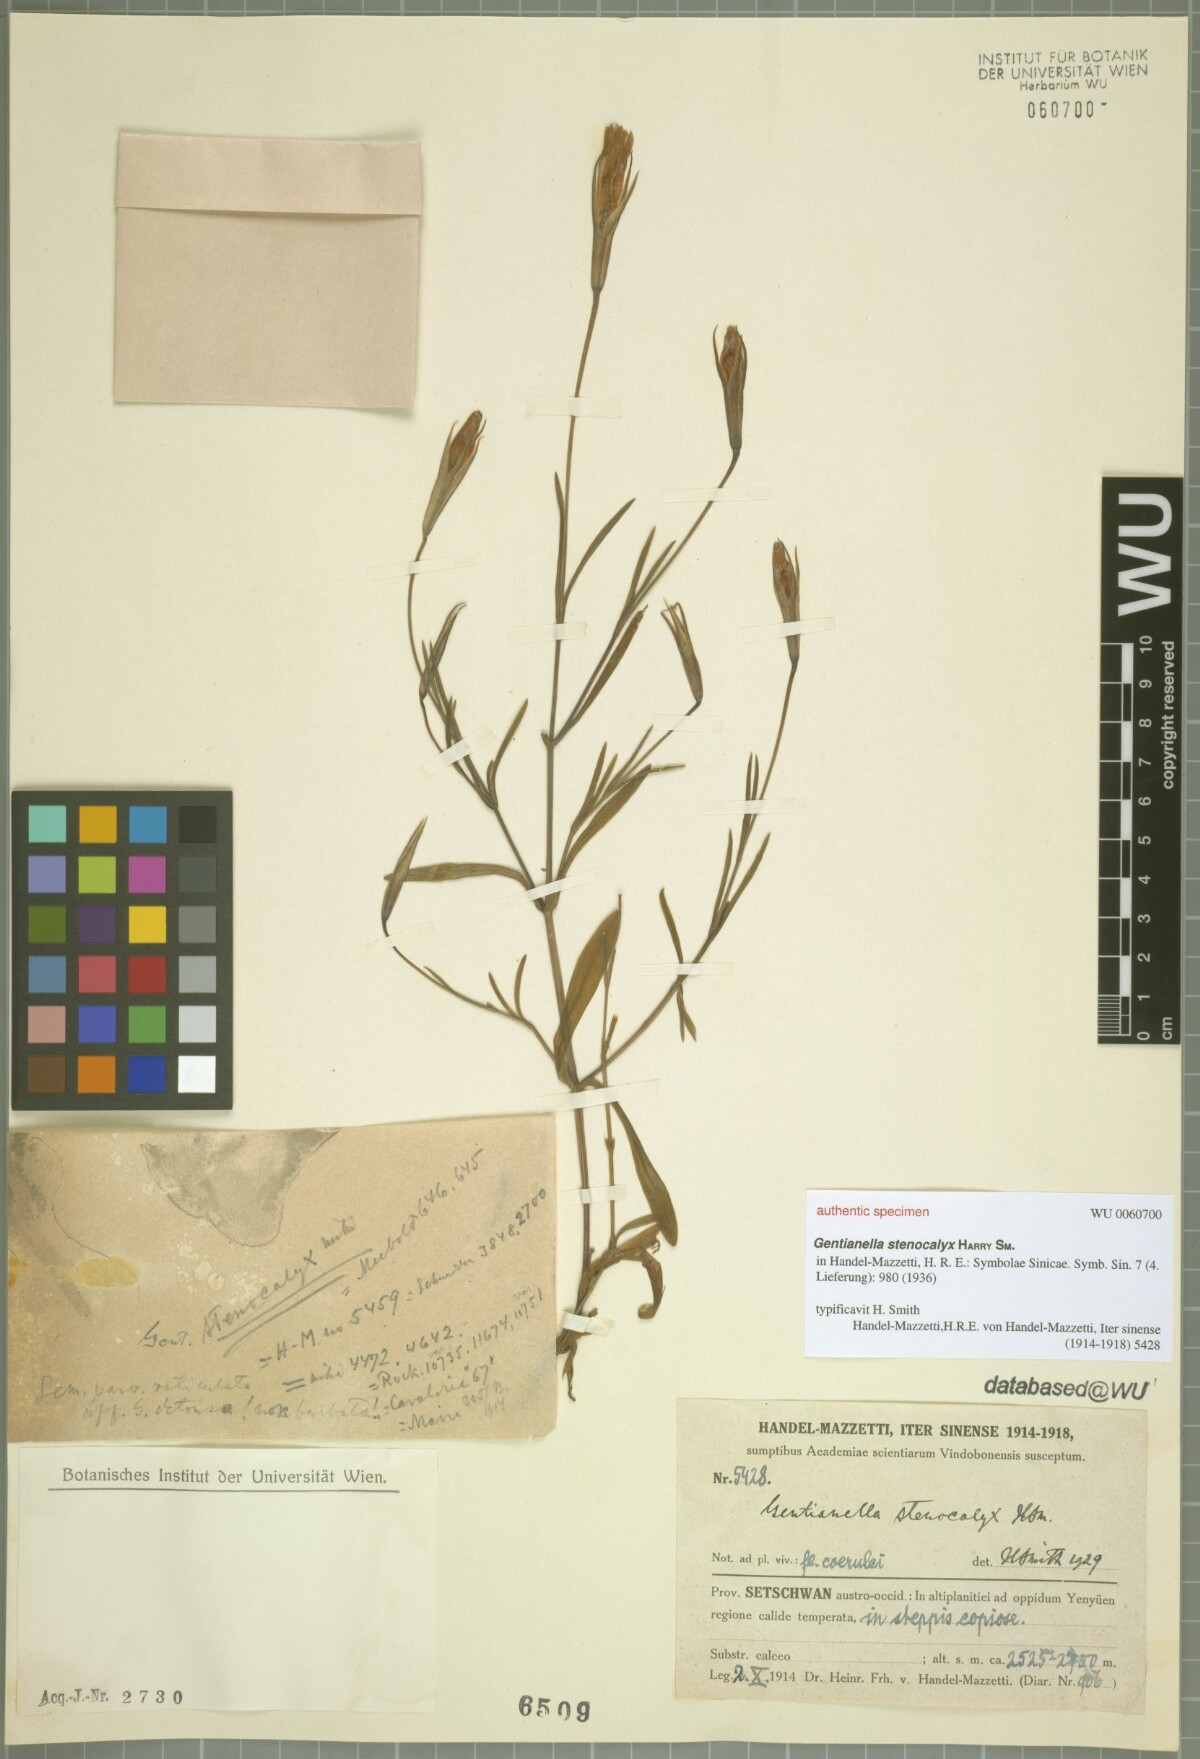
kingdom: Plantae
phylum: Tracheophyta
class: Magnoliopsida
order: Gentianales
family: Gentianaceae
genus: Gentianopsis
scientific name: Gentianopsis barbata
